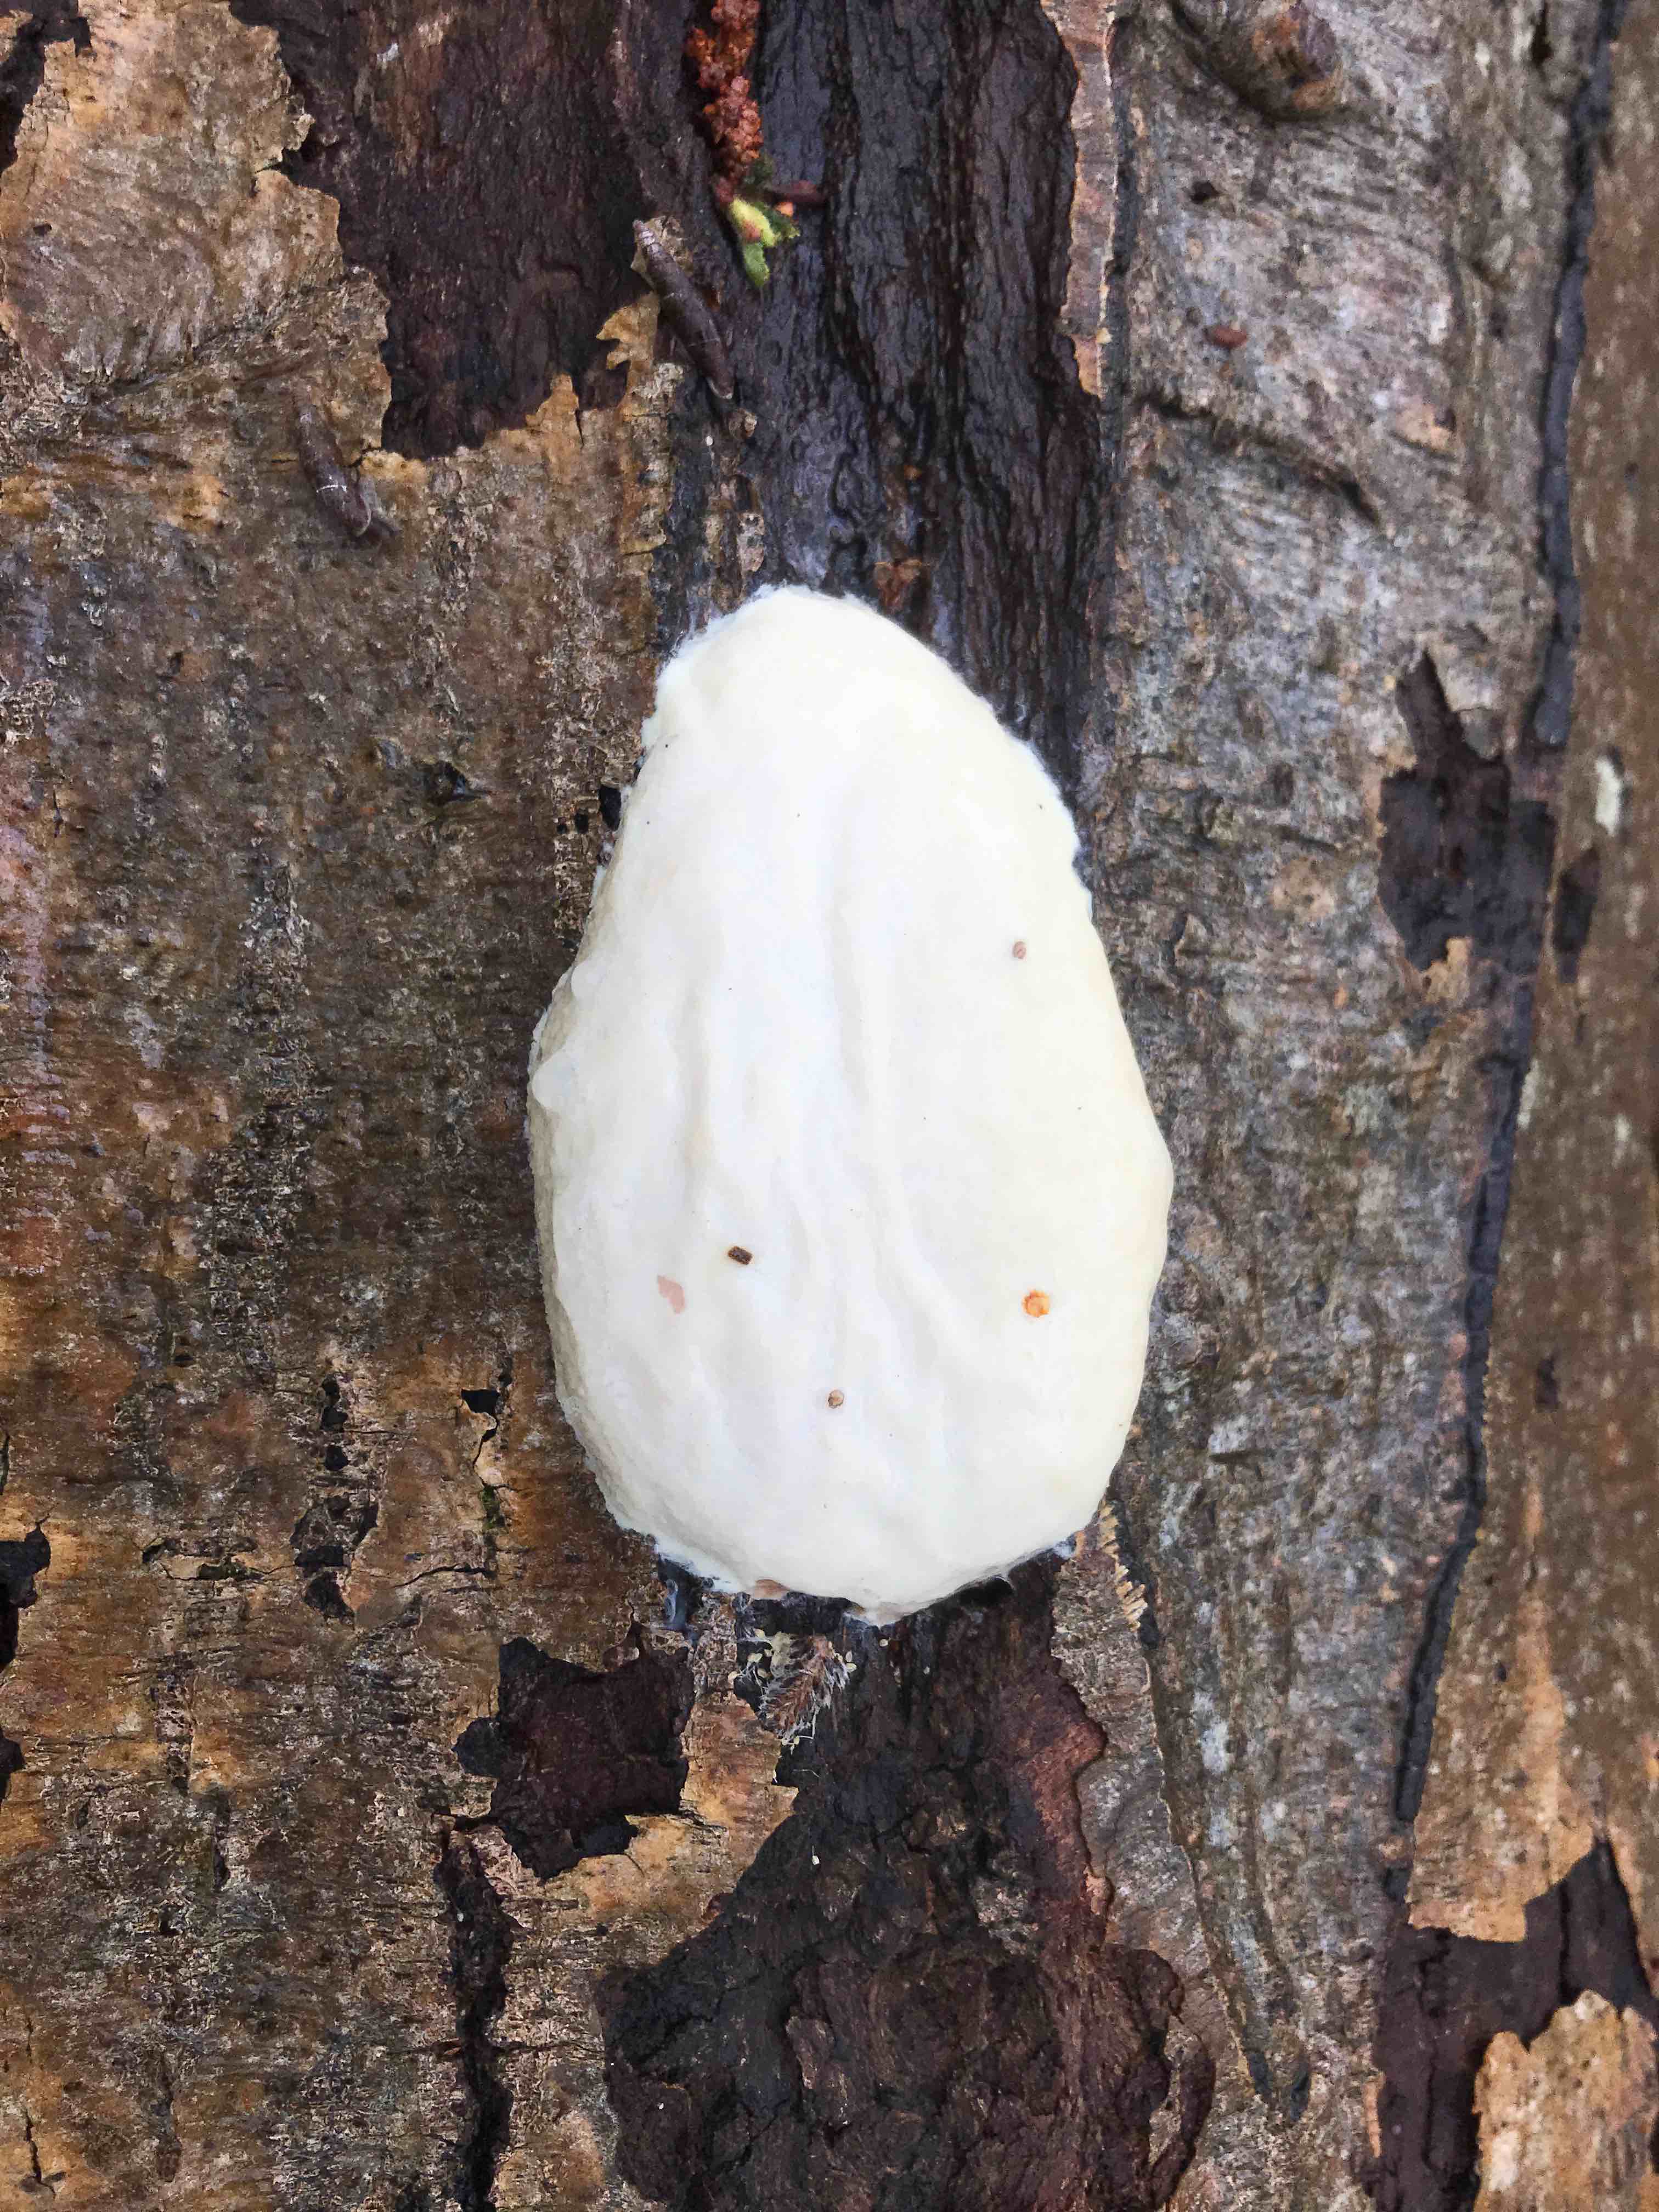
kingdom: Protozoa
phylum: Mycetozoa
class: Myxomycetes
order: Cribrariales
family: Tubiferaceae
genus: Reticularia
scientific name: Reticularia lycoperdon
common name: skinnende støvpude
